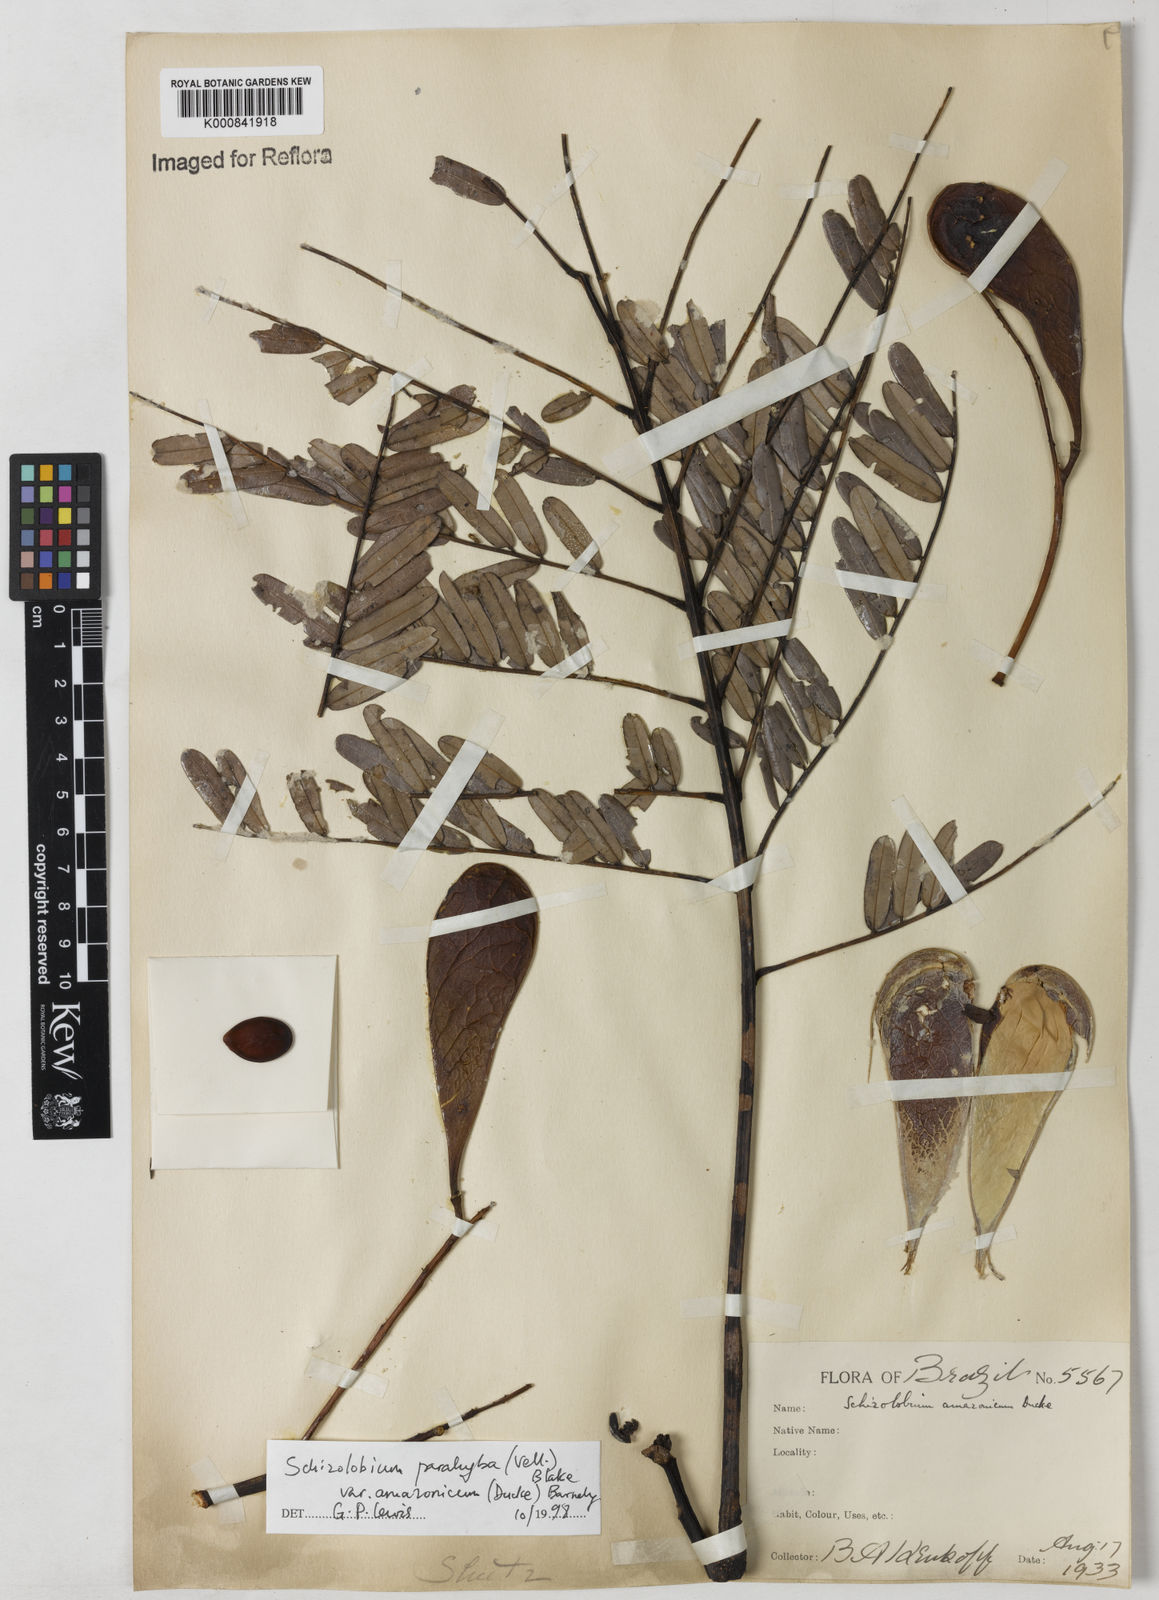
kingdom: Plantae
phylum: Tracheophyta
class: Magnoliopsida
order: Fabales
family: Fabaceae
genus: Schizolobium
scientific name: Schizolobium parahyba
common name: Brazilian firetree
